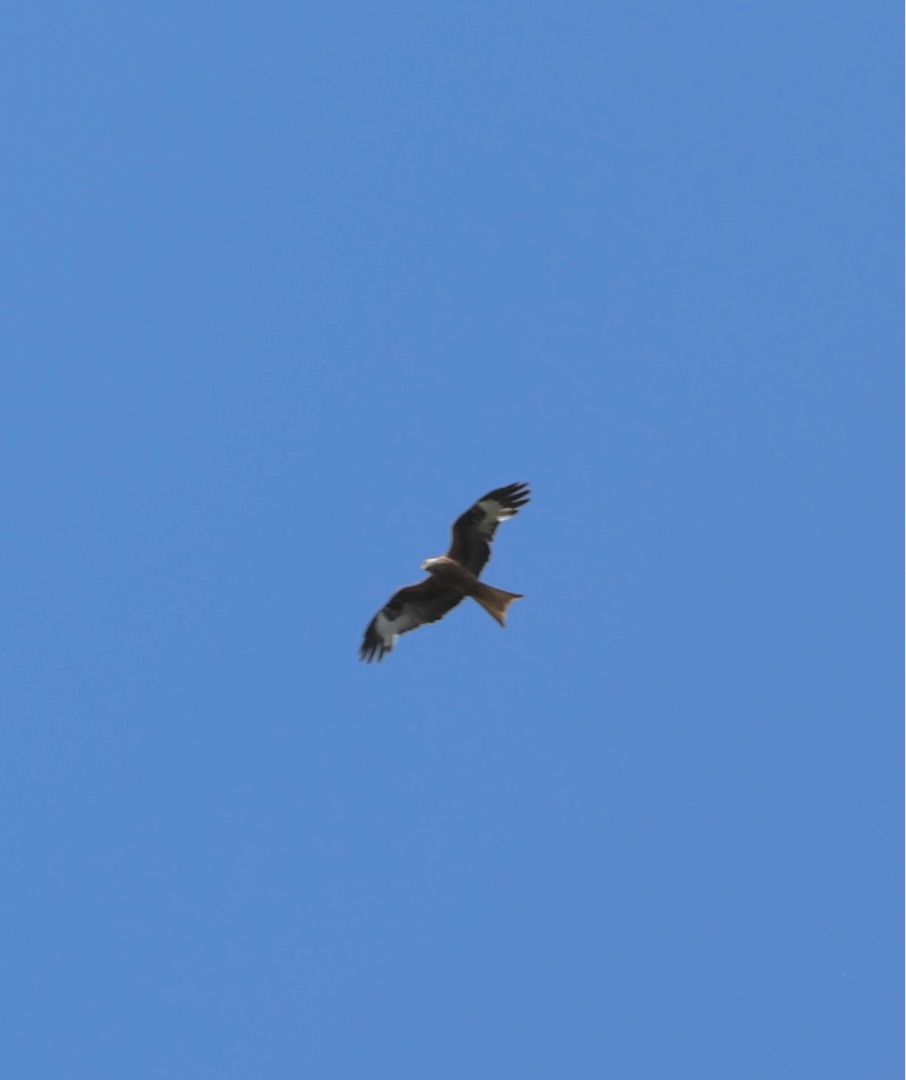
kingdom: Animalia
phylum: Chordata
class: Aves
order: Accipitriformes
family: Accipitridae
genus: Milvus
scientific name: Milvus milvus
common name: Rød glente
